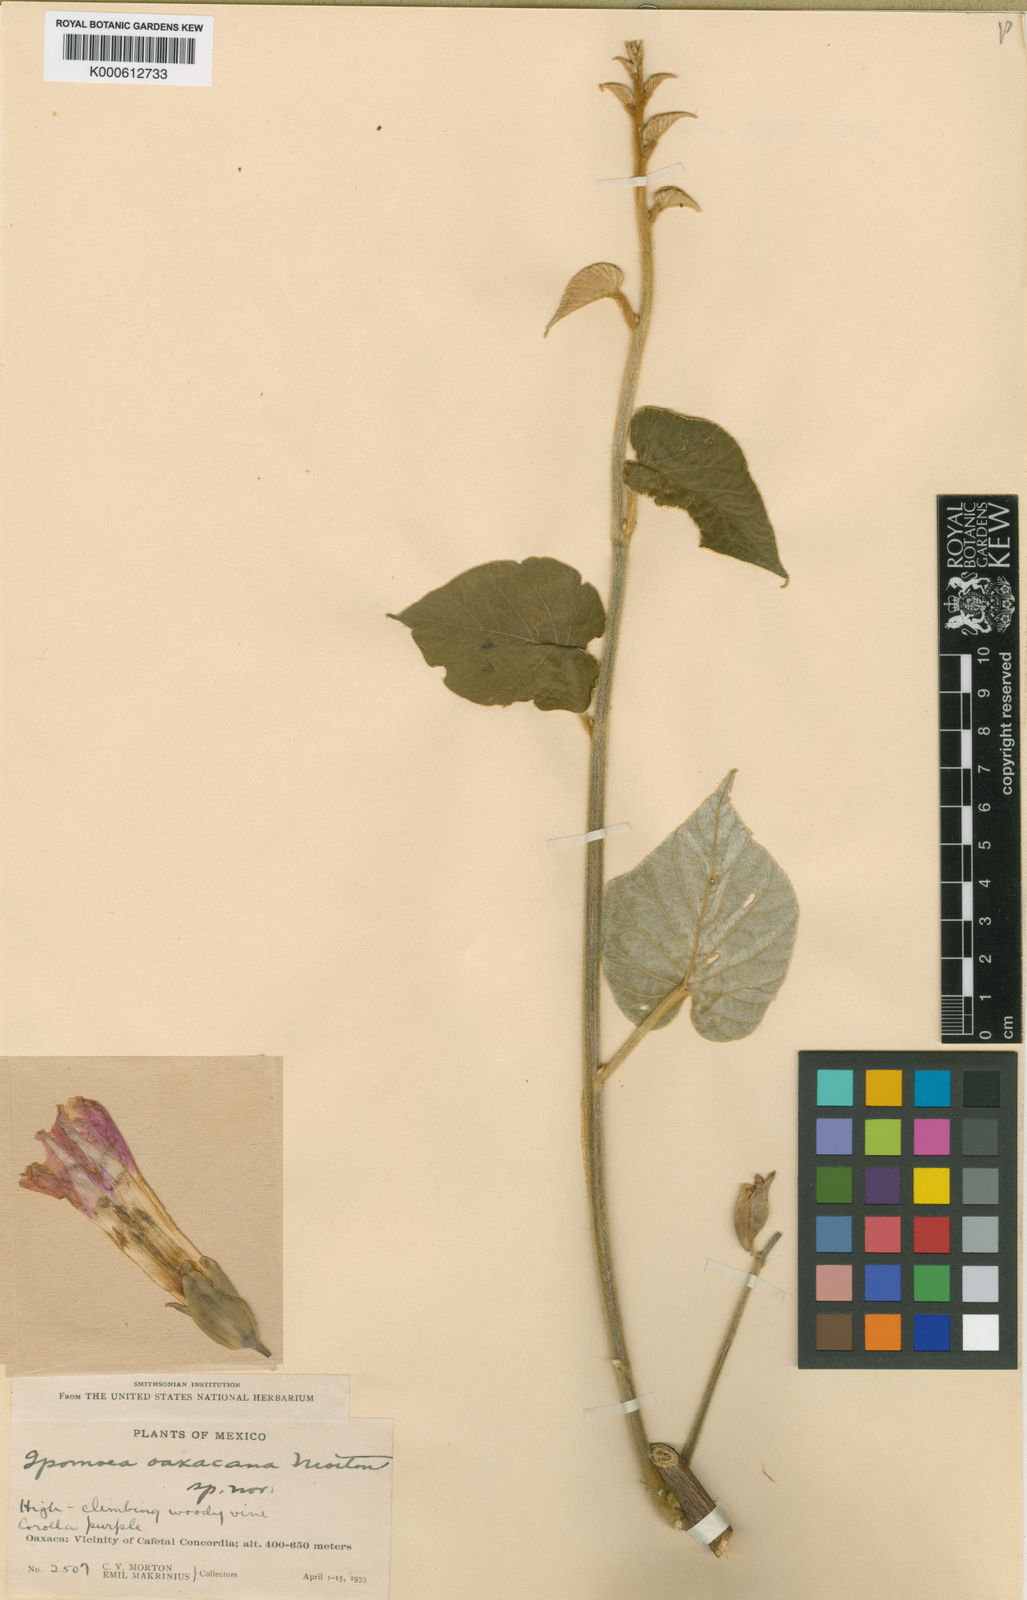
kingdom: Plantae
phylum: Tracheophyta
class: Magnoliopsida
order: Solanales
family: Convolvulaceae
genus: Ipomoea
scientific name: Ipomoea proxima
